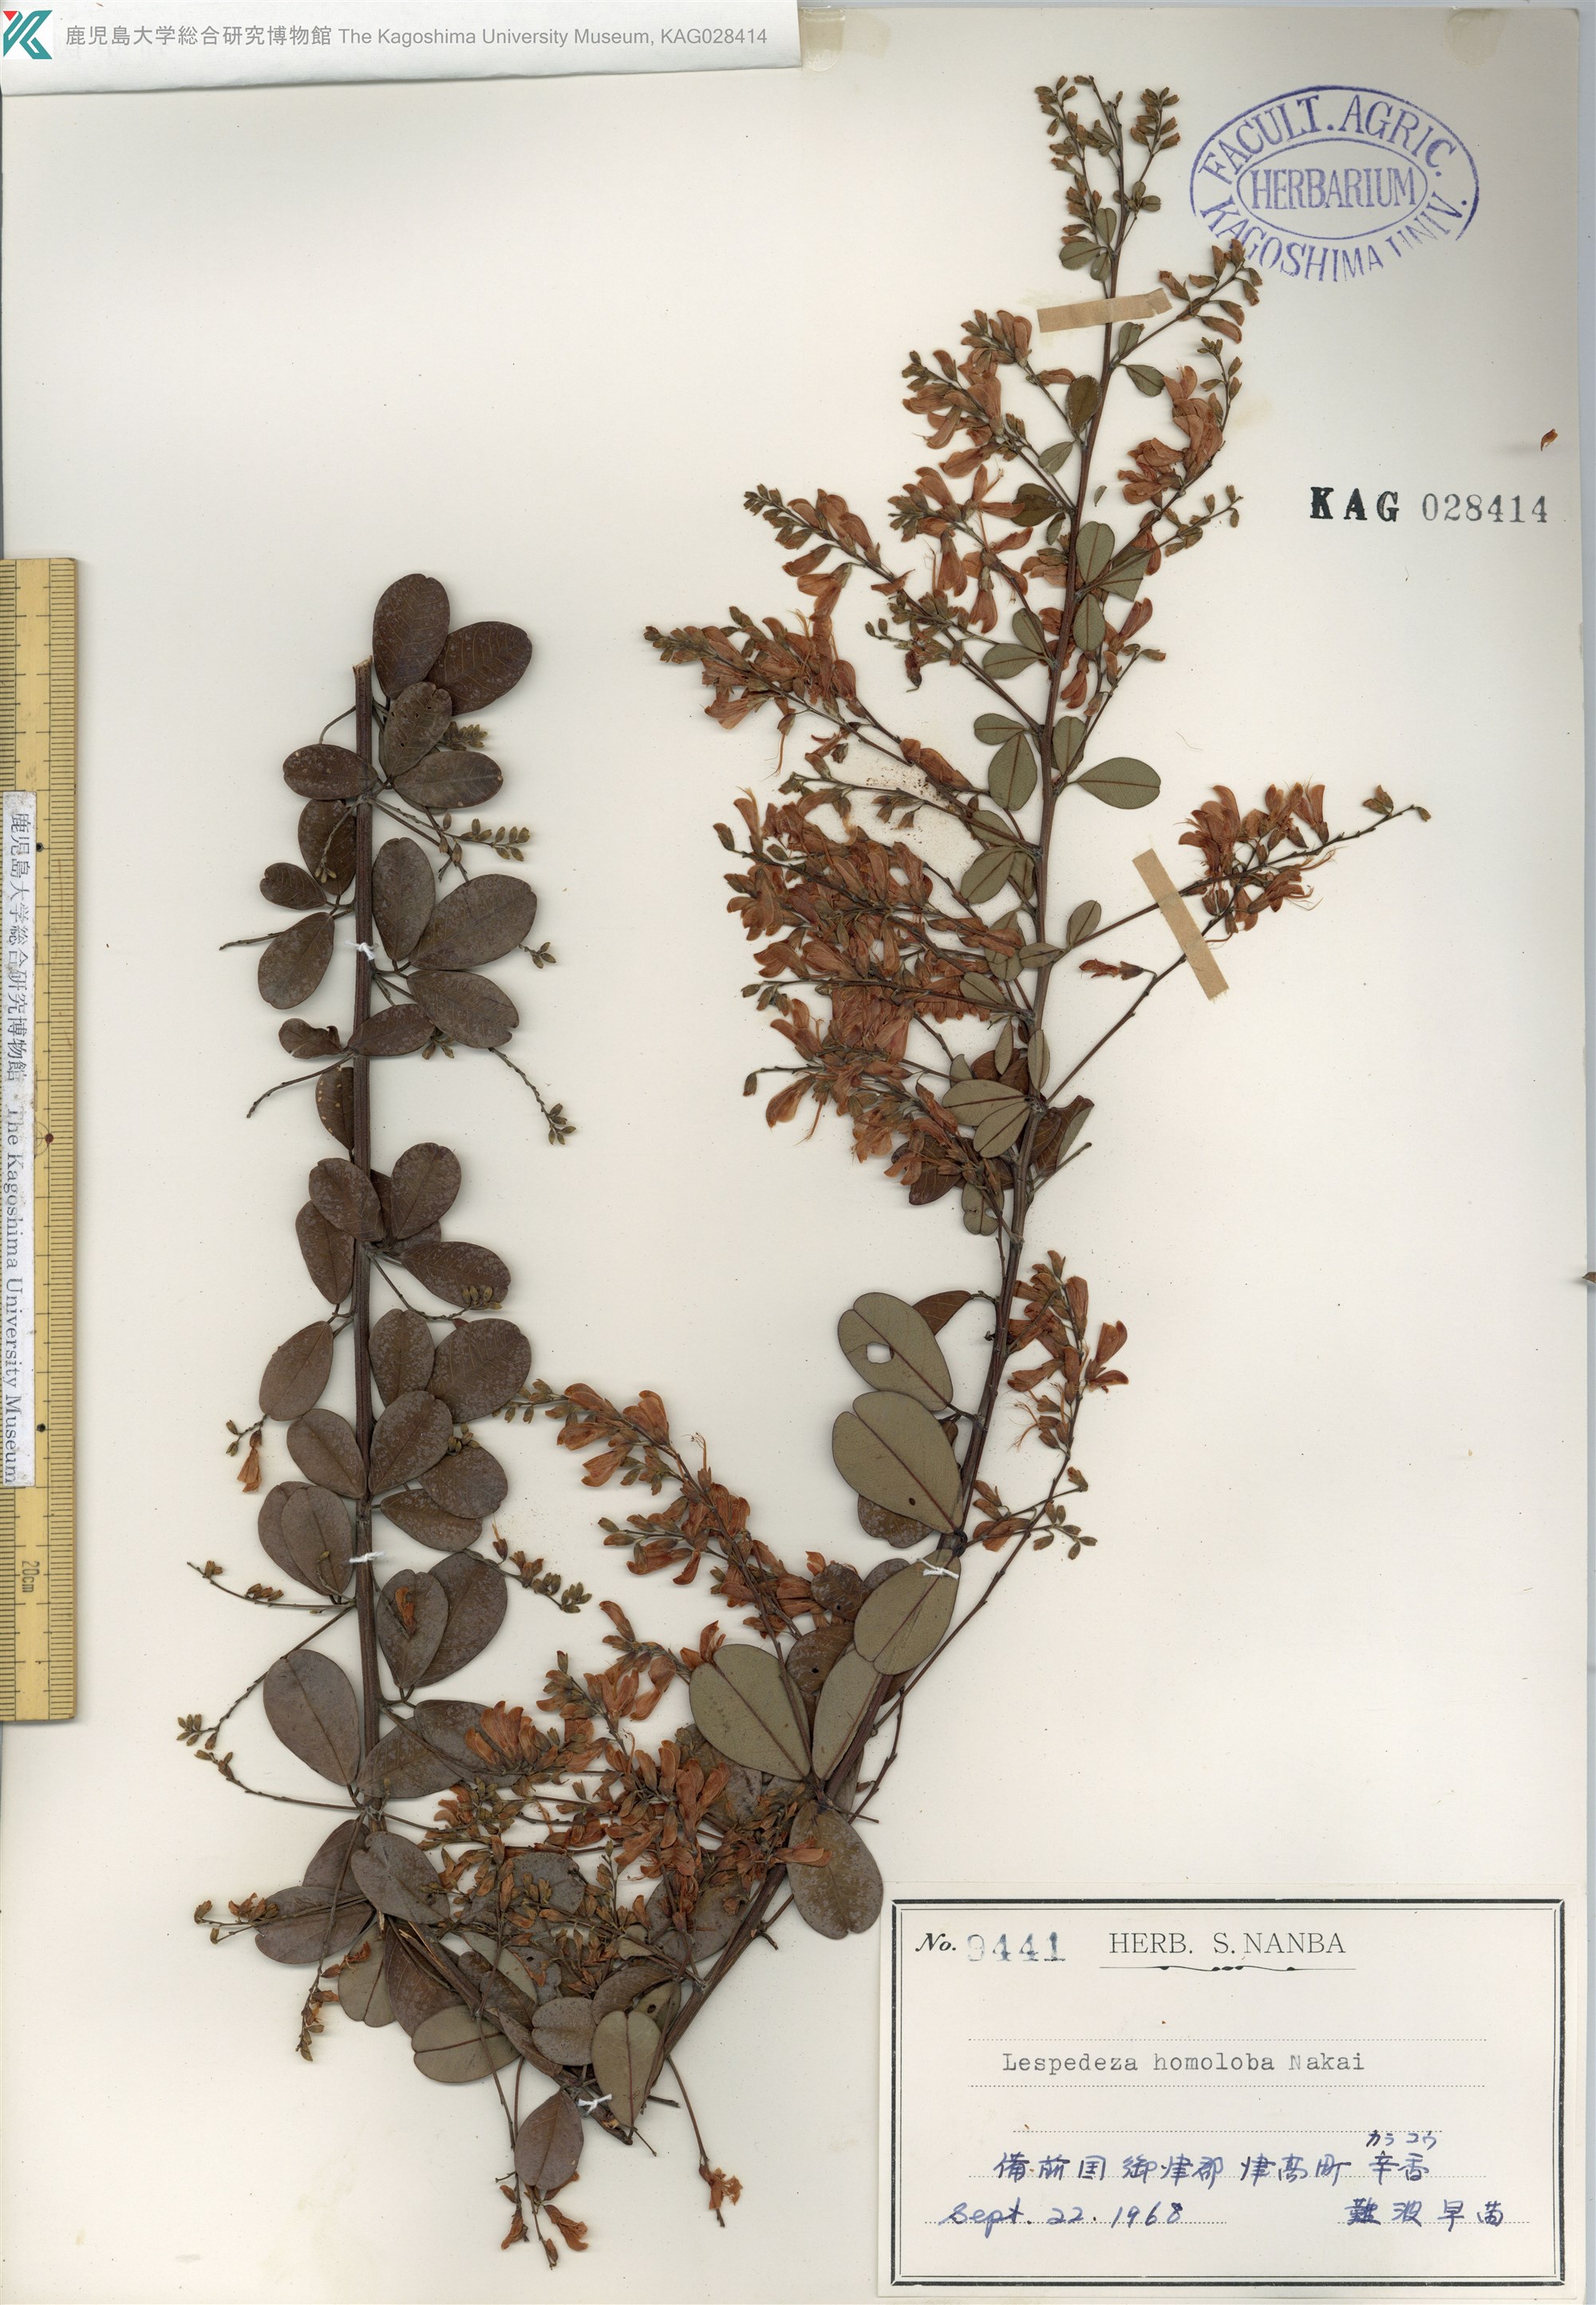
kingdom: Plantae
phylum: Tracheophyta
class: Magnoliopsida
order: Fabales
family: Fabaceae
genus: Lespedeza
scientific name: Lespedeza homoloba
